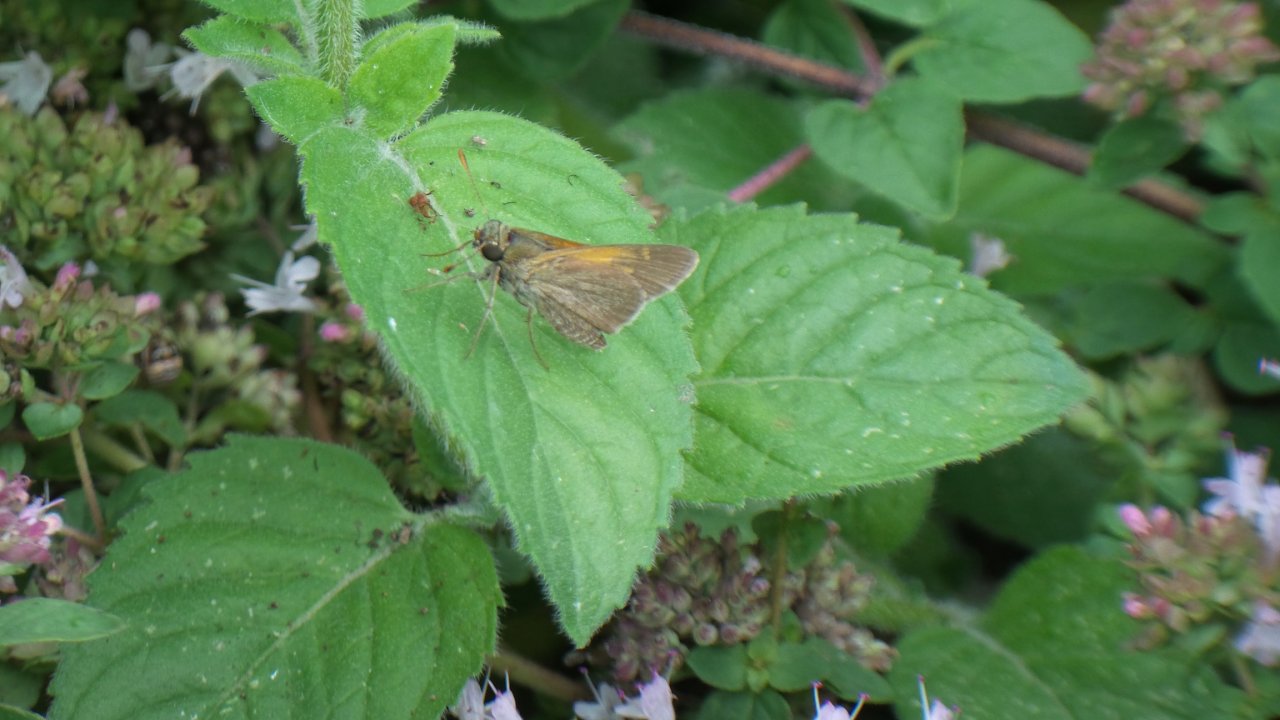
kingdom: Animalia
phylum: Arthropoda
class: Insecta
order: Lepidoptera
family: Hesperiidae
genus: Polites
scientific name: Polites themistocles
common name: Tawny-edged Skipper
